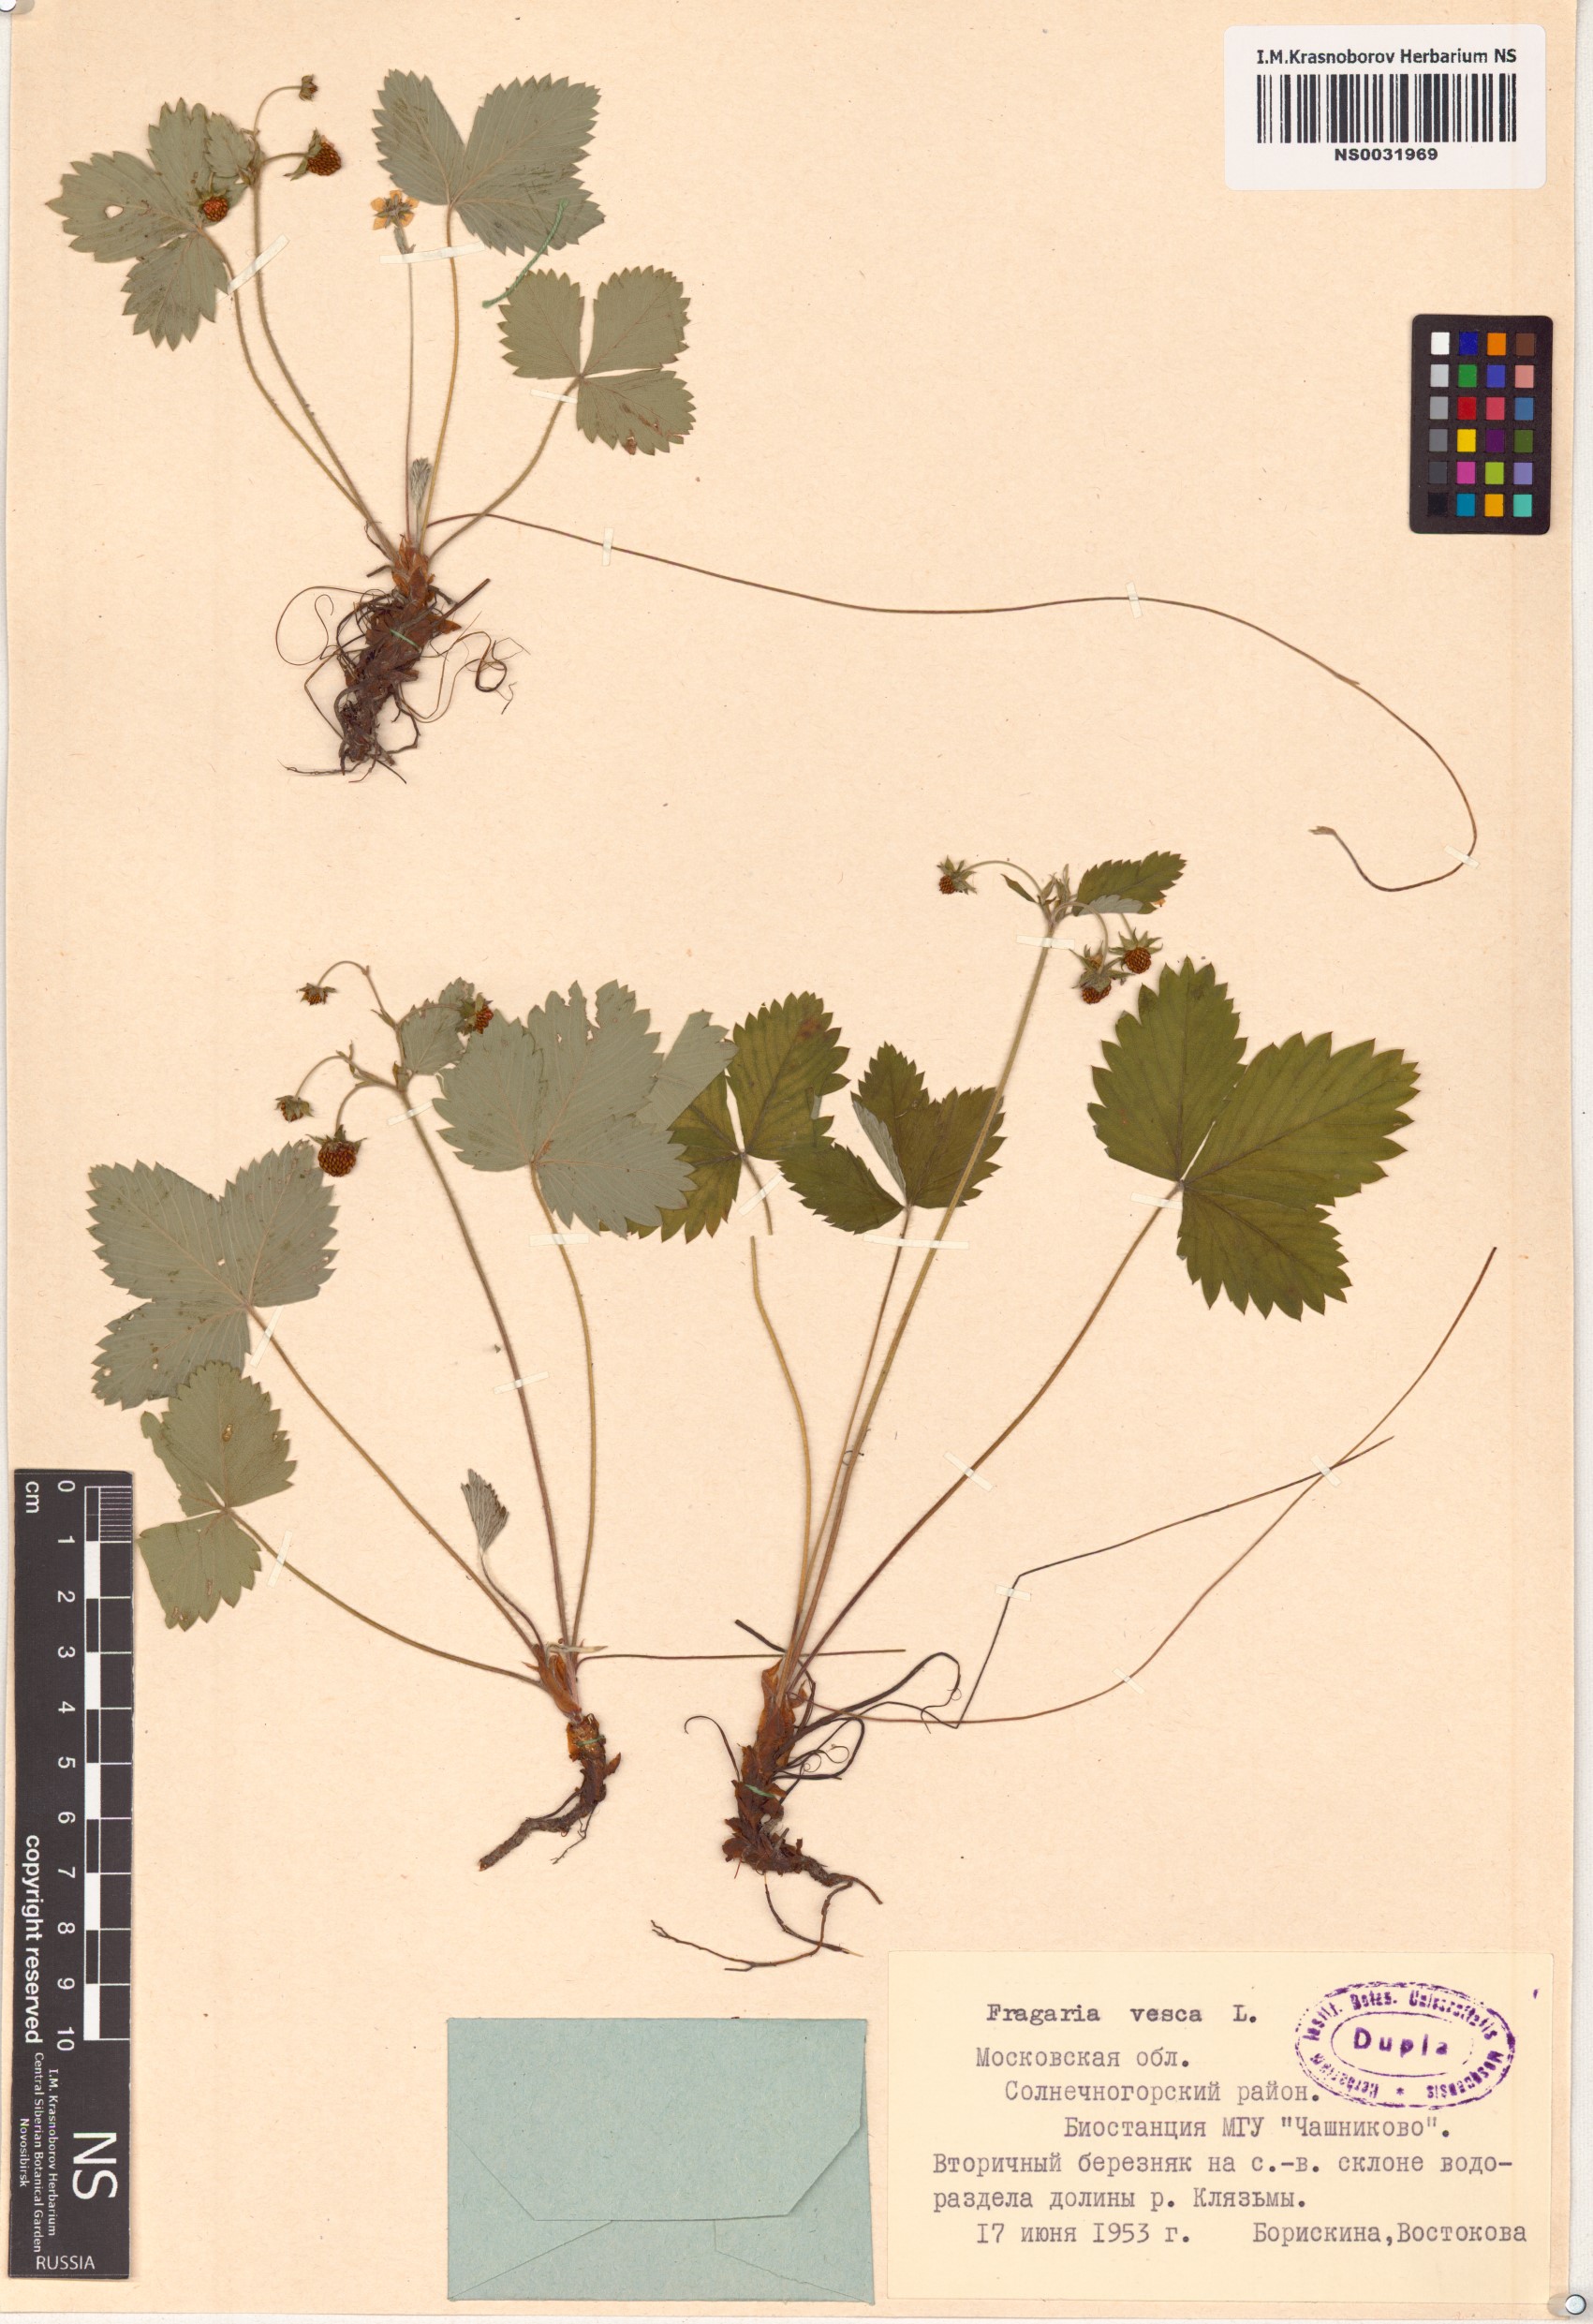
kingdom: Plantae
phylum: Tracheophyta
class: Magnoliopsida
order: Rosales
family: Rosaceae
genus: Fragaria
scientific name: Fragaria vesca
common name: Wild strawberry
